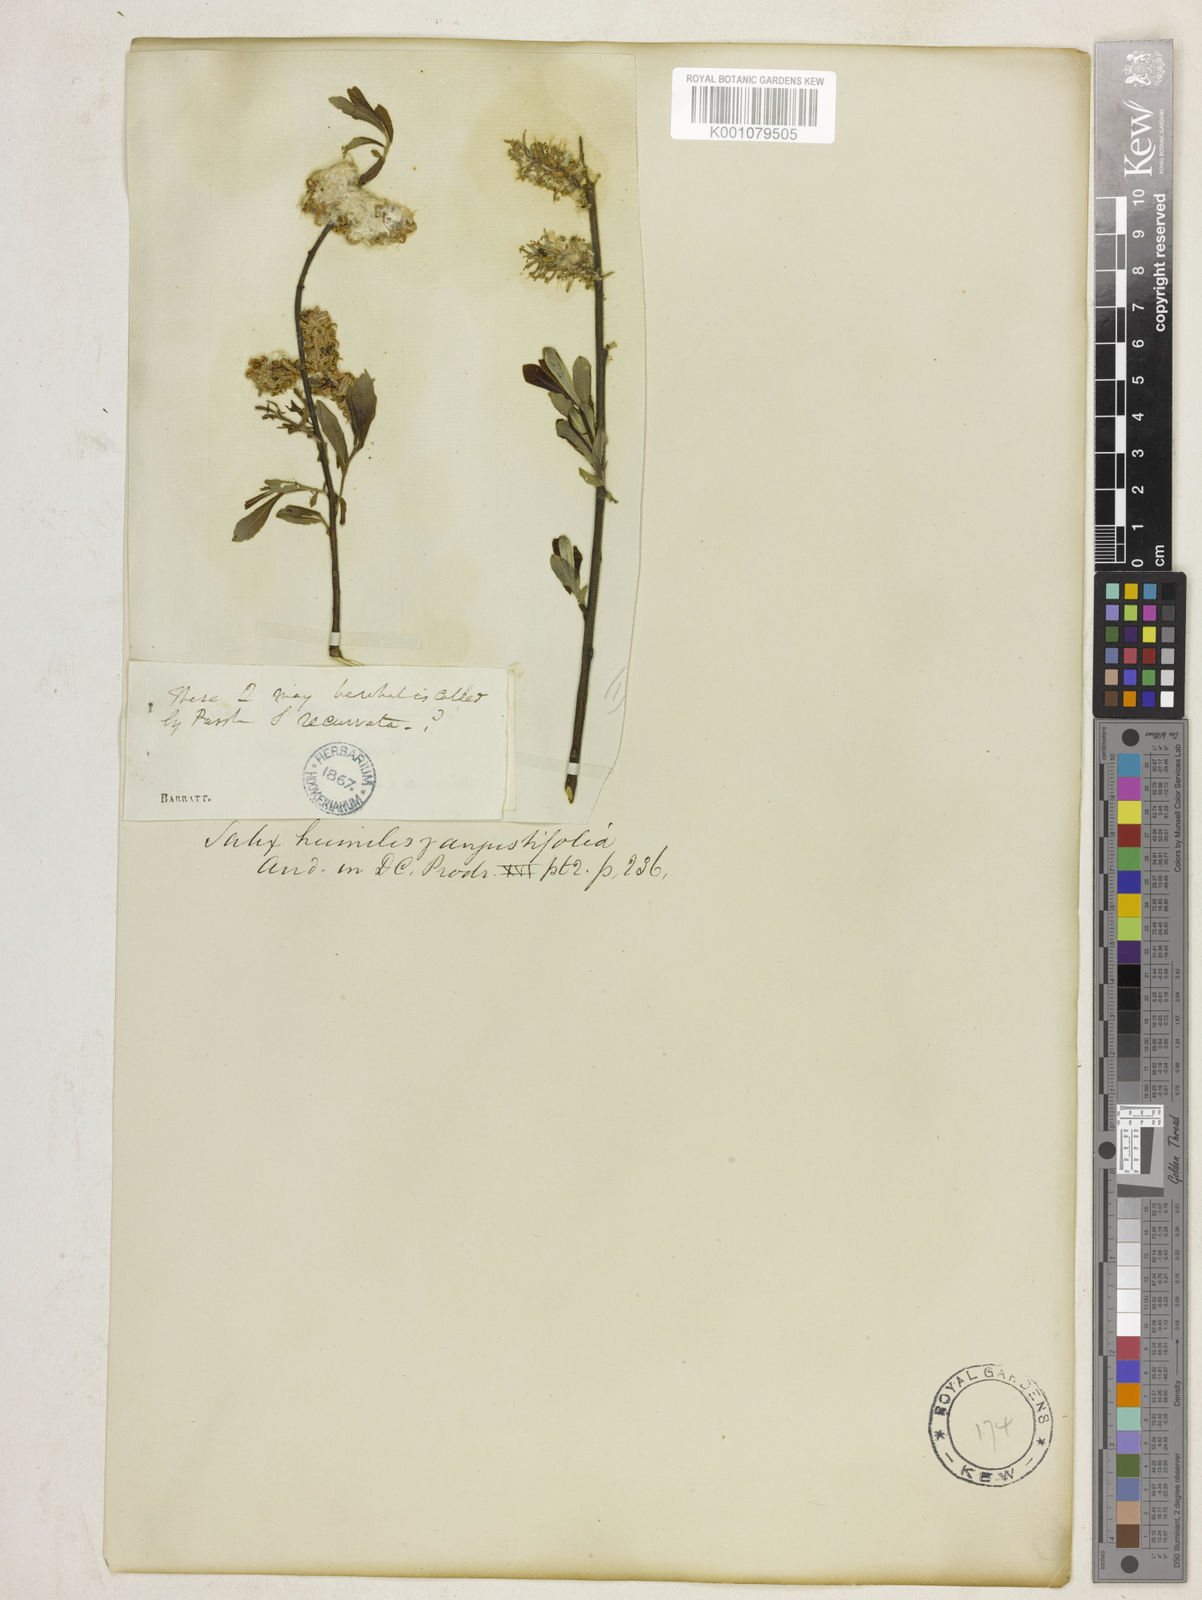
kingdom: Plantae
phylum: Tracheophyta
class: Magnoliopsida
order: Malpighiales
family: Salicaceae
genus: Salix
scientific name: Salix humilis
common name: Prairie willow
